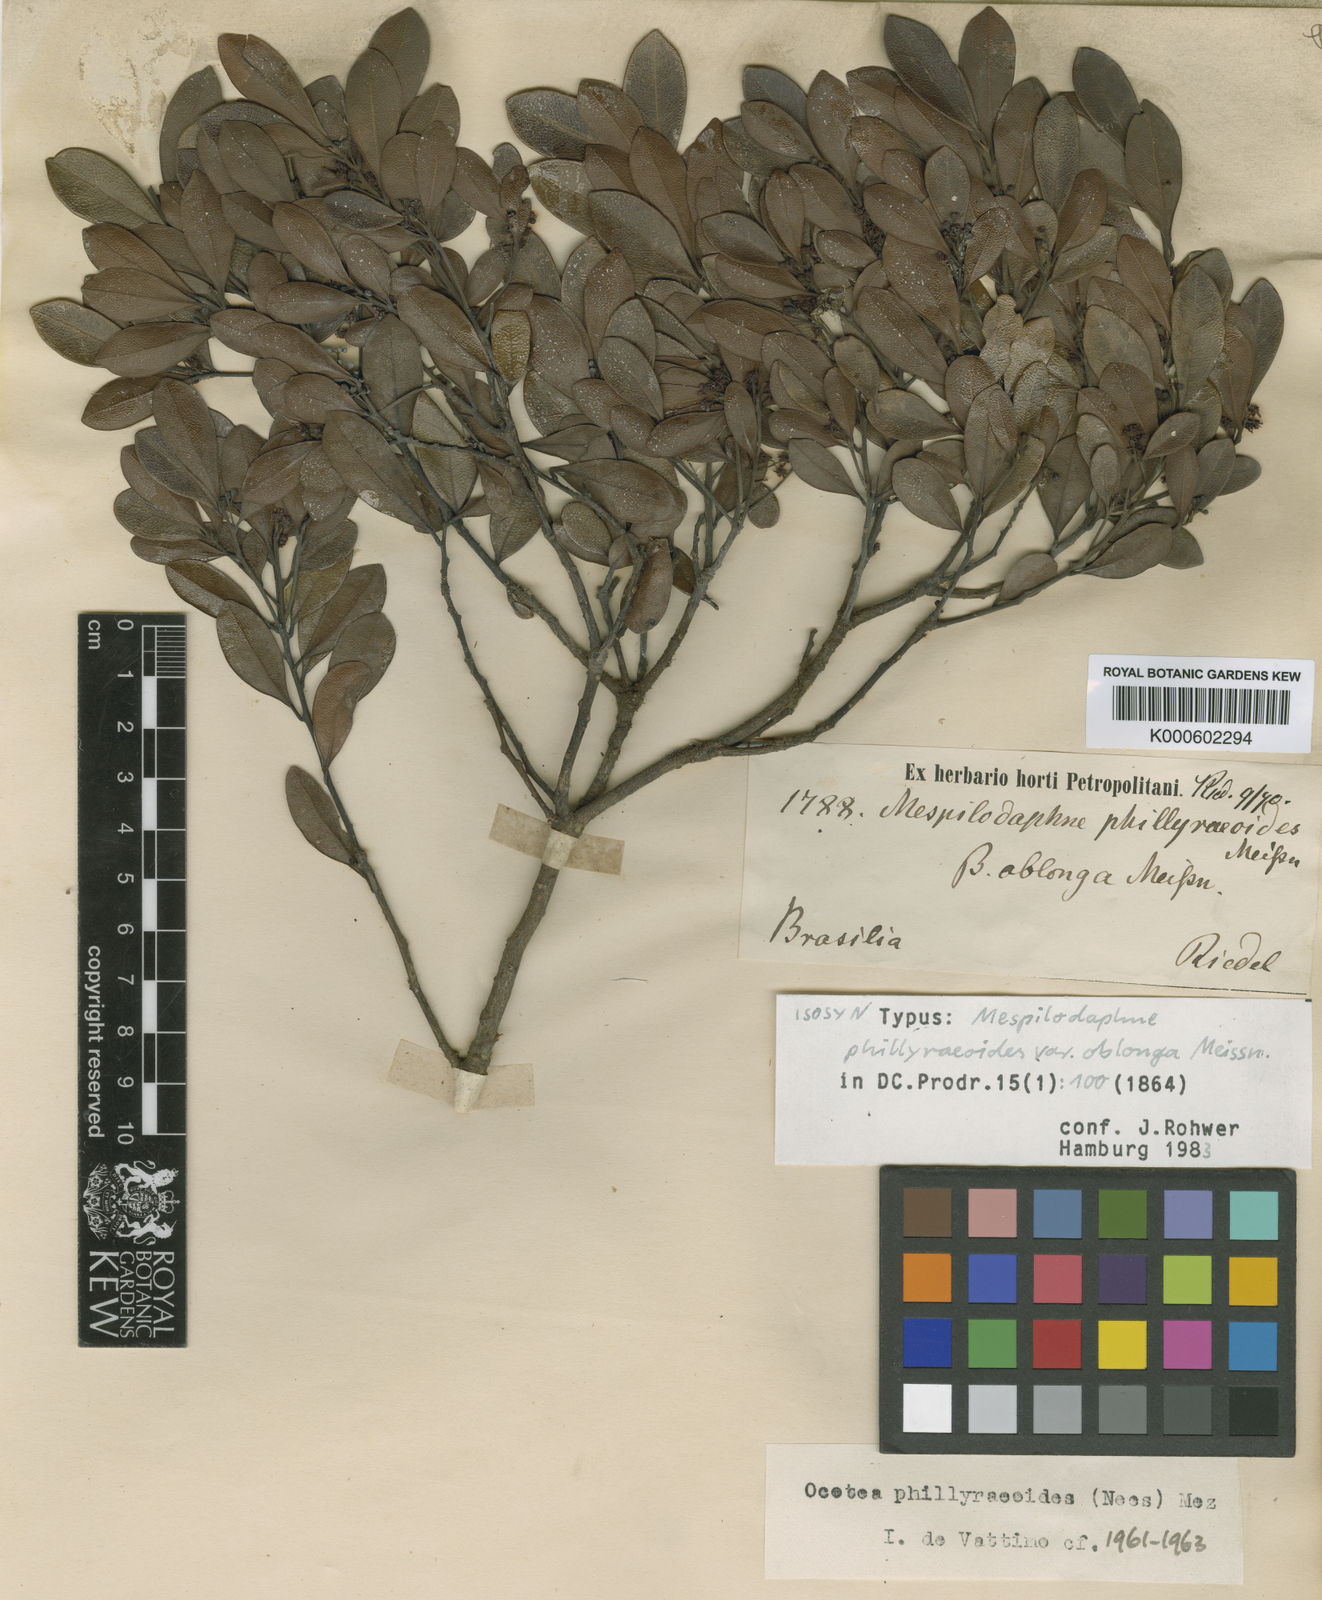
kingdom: Plantae
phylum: Tracheophyta
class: Magnoliopsida
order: Laurales
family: Lauraceae
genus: Mespilodaphne
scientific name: Mespilodaphne tristis
